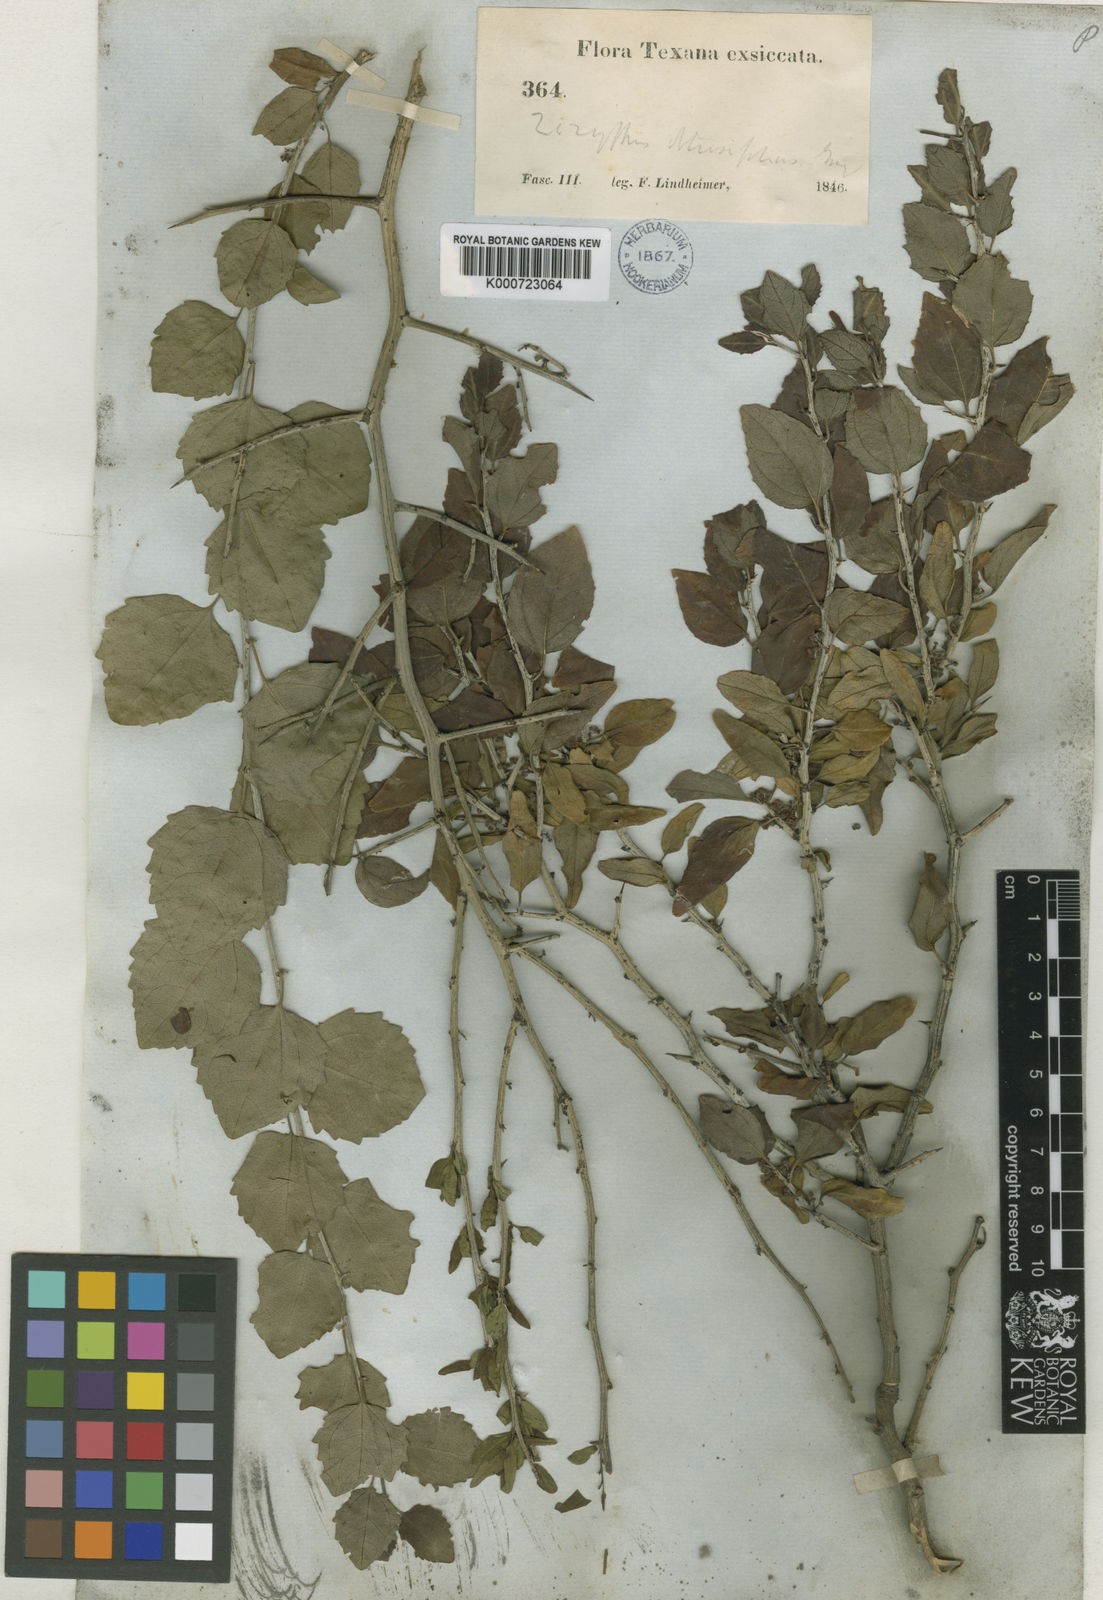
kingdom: Plantae
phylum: Tracheophyta
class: Magnoliopsida
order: Rosales
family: Rhamnaceae
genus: Sarcomphalus
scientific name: Sarcomphalus obtusifolius
